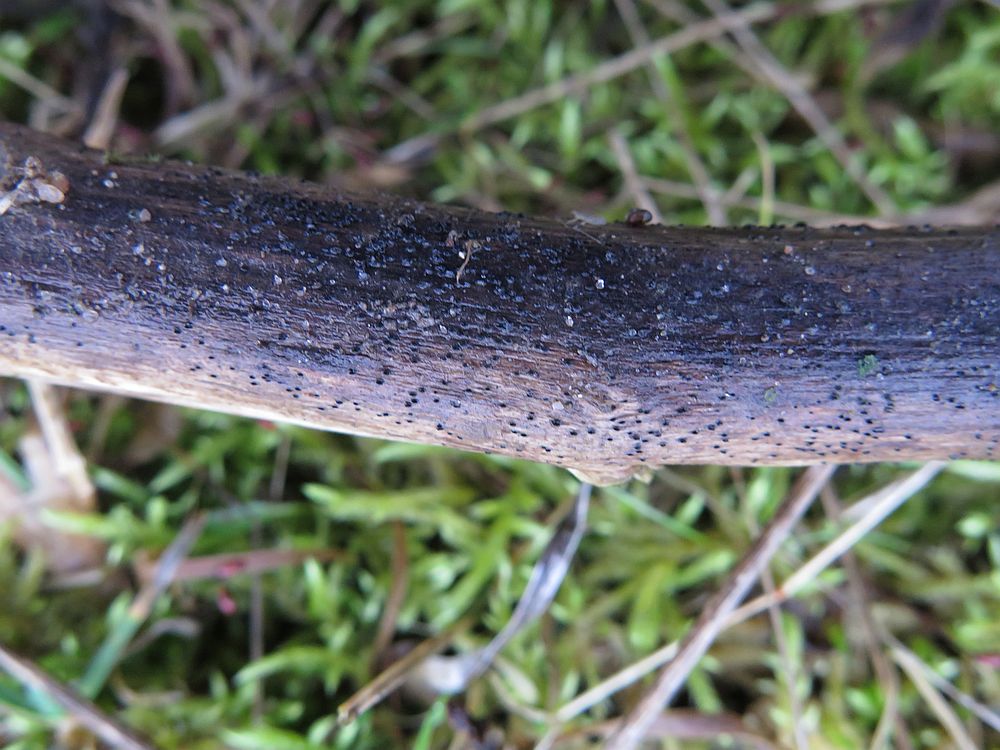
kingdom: Fungi
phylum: Ascomycota
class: Dothideomycetes
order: Pleosporales
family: Lophiostomataceae
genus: Lophiostoma
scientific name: Lophiostoma macrostomum
